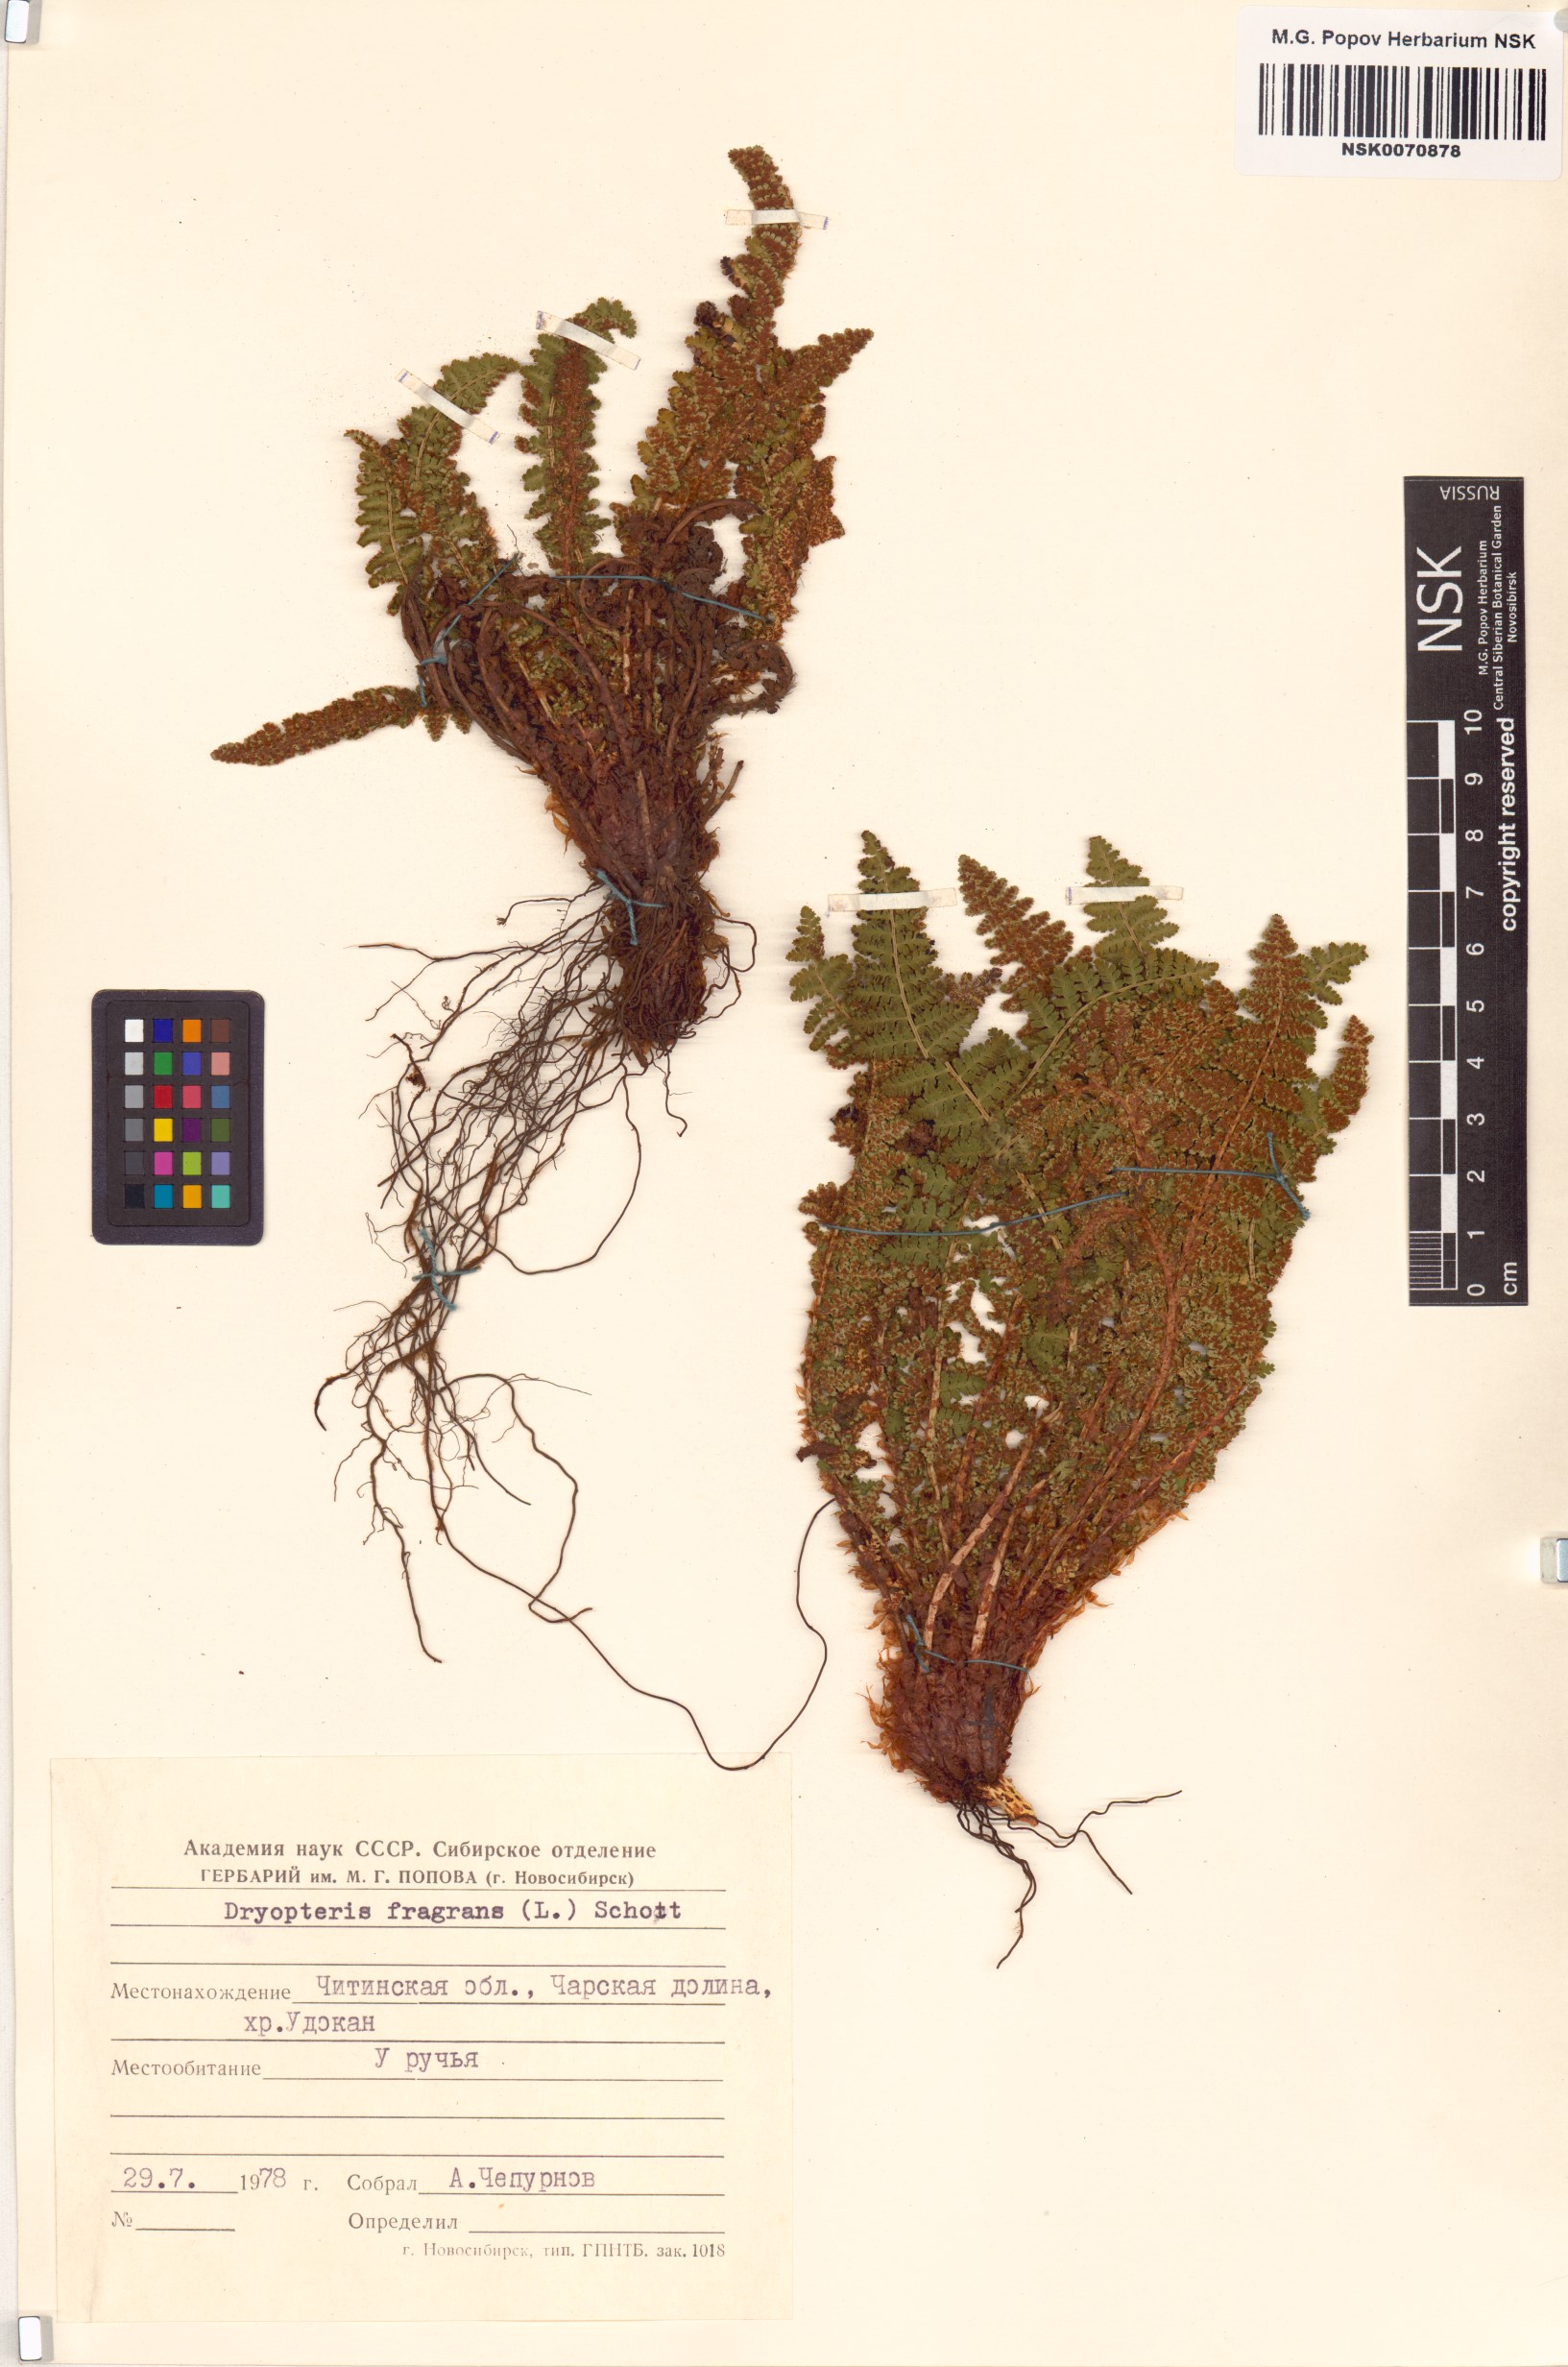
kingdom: Plantae
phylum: Tracheophyta
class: Polypodiopsida
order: Polypodiales
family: Dryopteridaceae
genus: Dryopteris
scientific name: Dryopteris fragrans
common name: Fragrant wood fern
